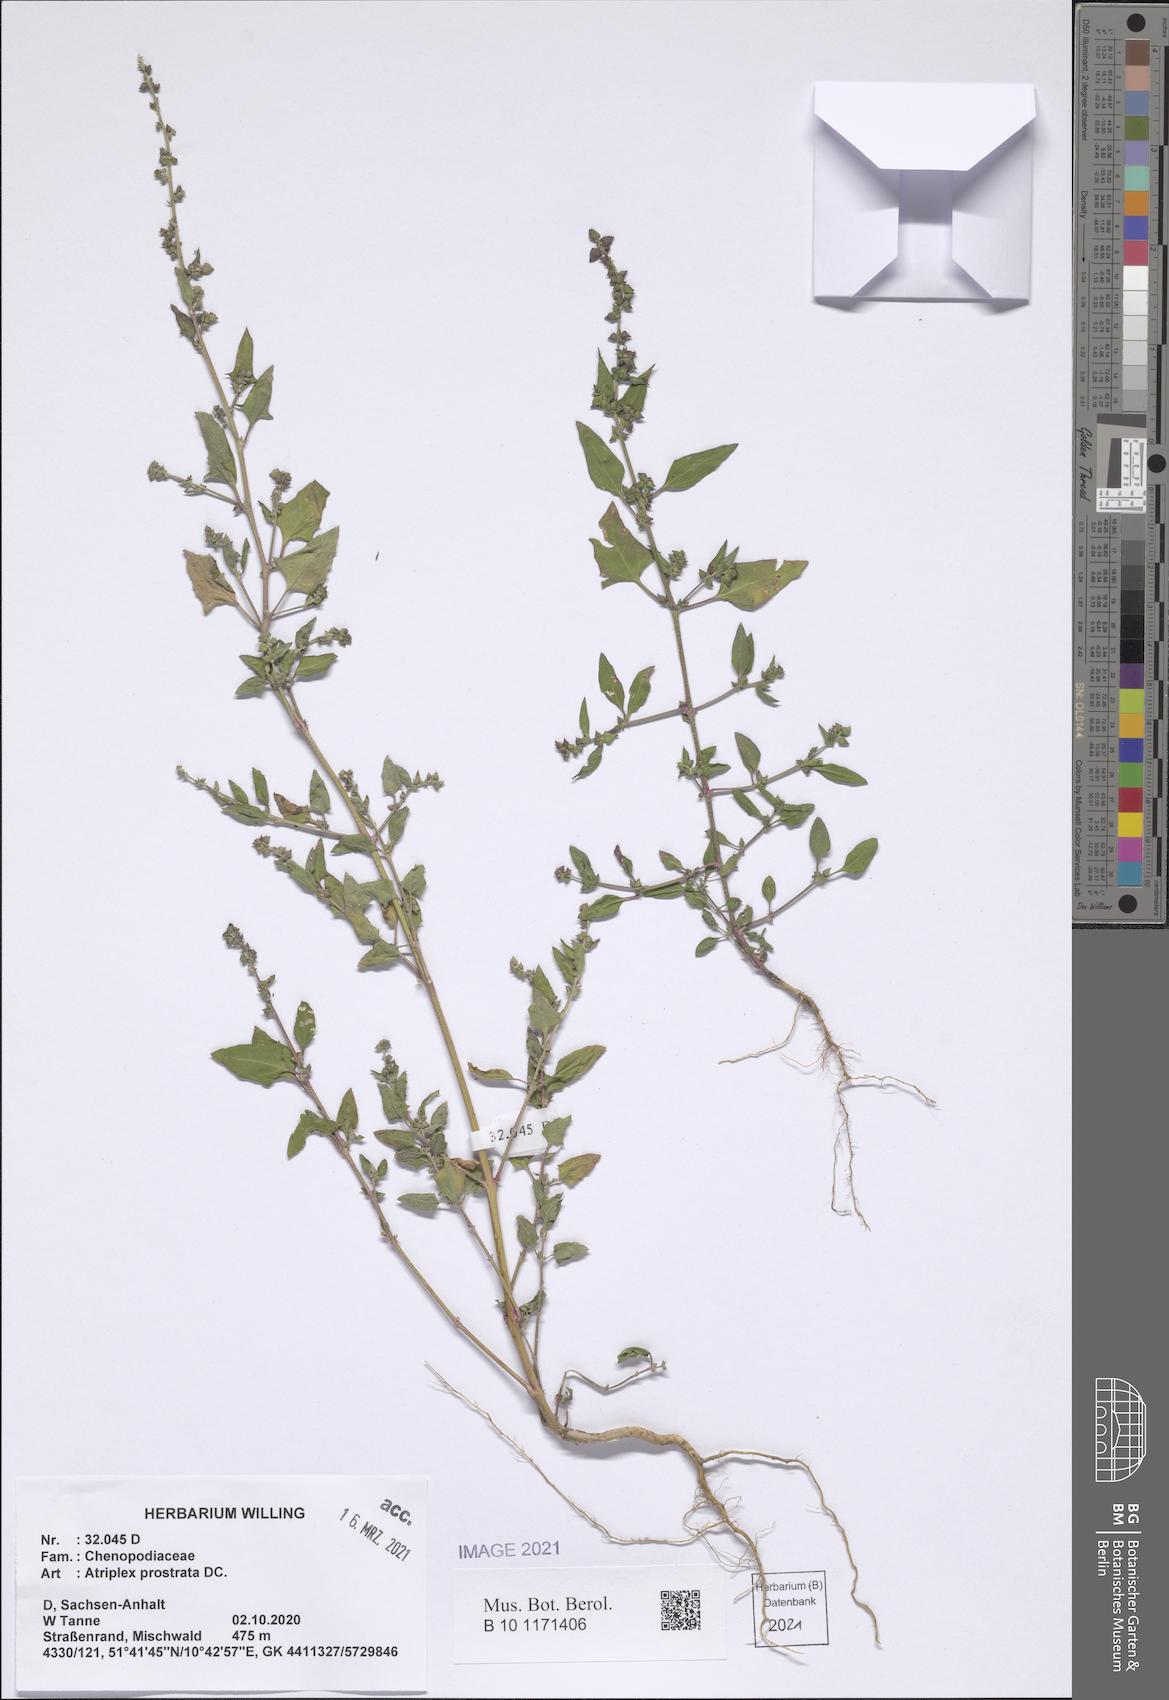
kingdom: Plantae
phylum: Tracheophyta
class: Magnoliopsida
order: Caryophyllales
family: Amaranthaceae
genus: Atriplex
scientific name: Atriplex prostrata
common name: Spear-leaved orache
